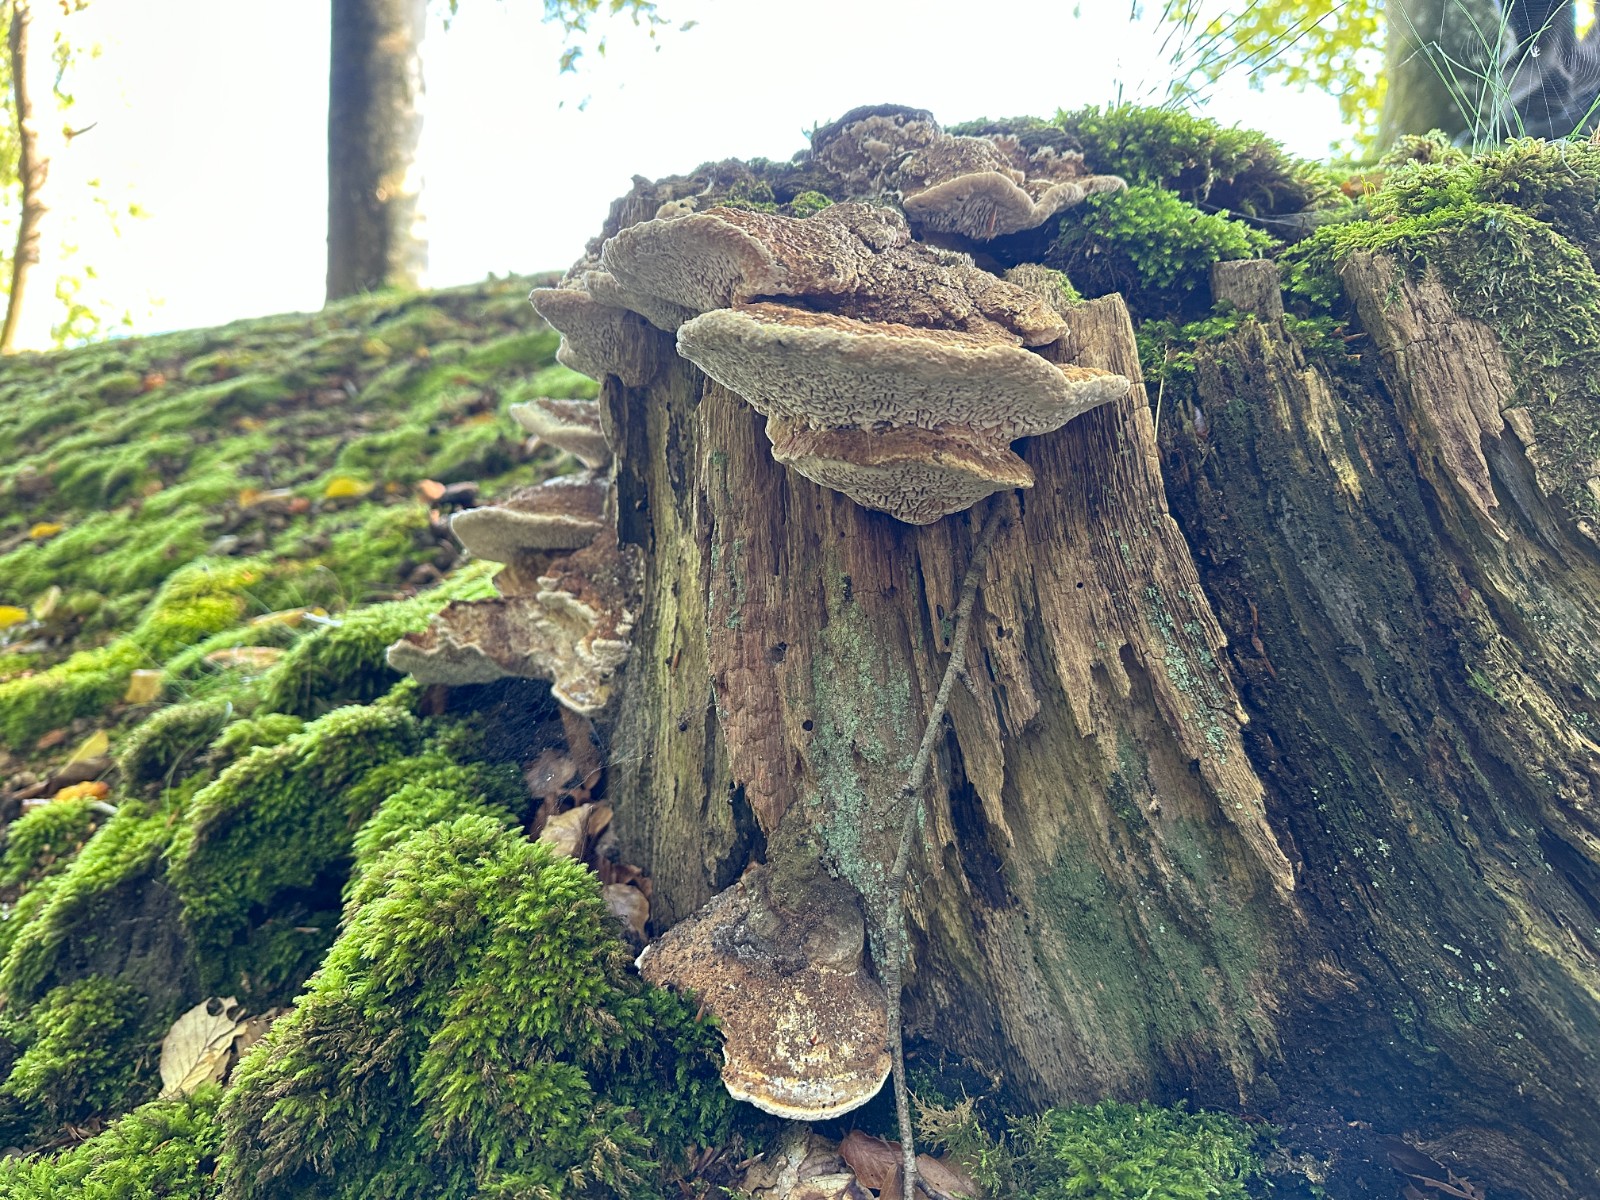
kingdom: Fungi
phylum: Basidiomycota
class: Agaricomycetes
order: Polyporales
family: Fomitopsidaceae
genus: Daedalea
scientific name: Daedalea quercina
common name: ege-labyrintsvamp
